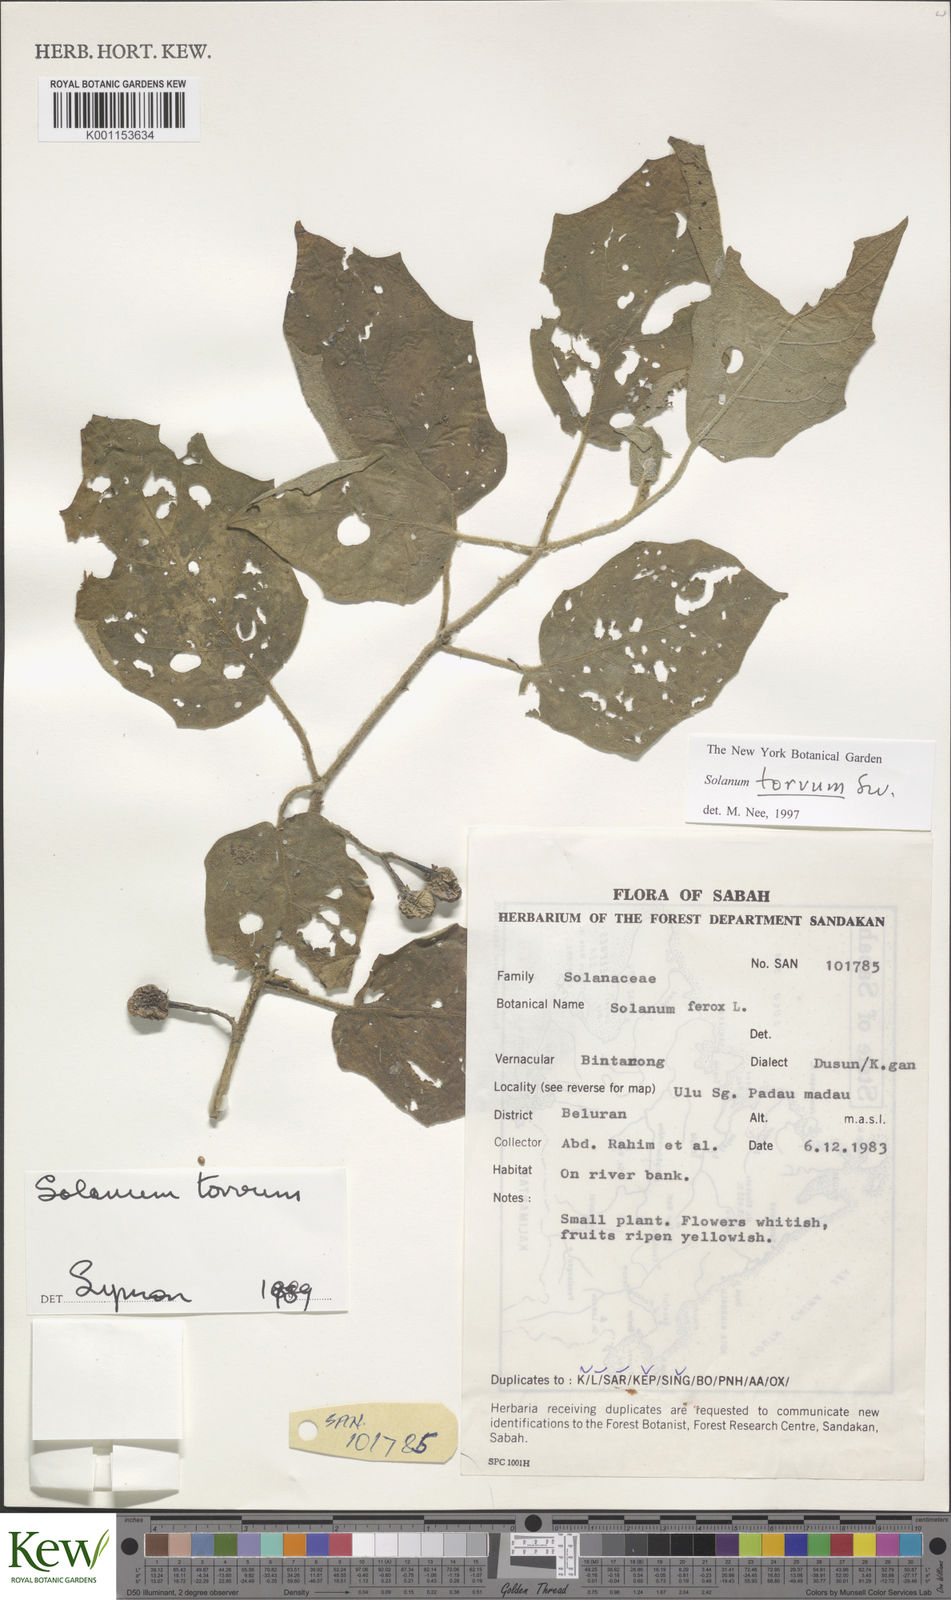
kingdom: Plantae
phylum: Tracheophyta
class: Magnoliopsida
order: Solanales
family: Solanaceae
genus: Solanum
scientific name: Solanum torvum
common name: Turkey berry
